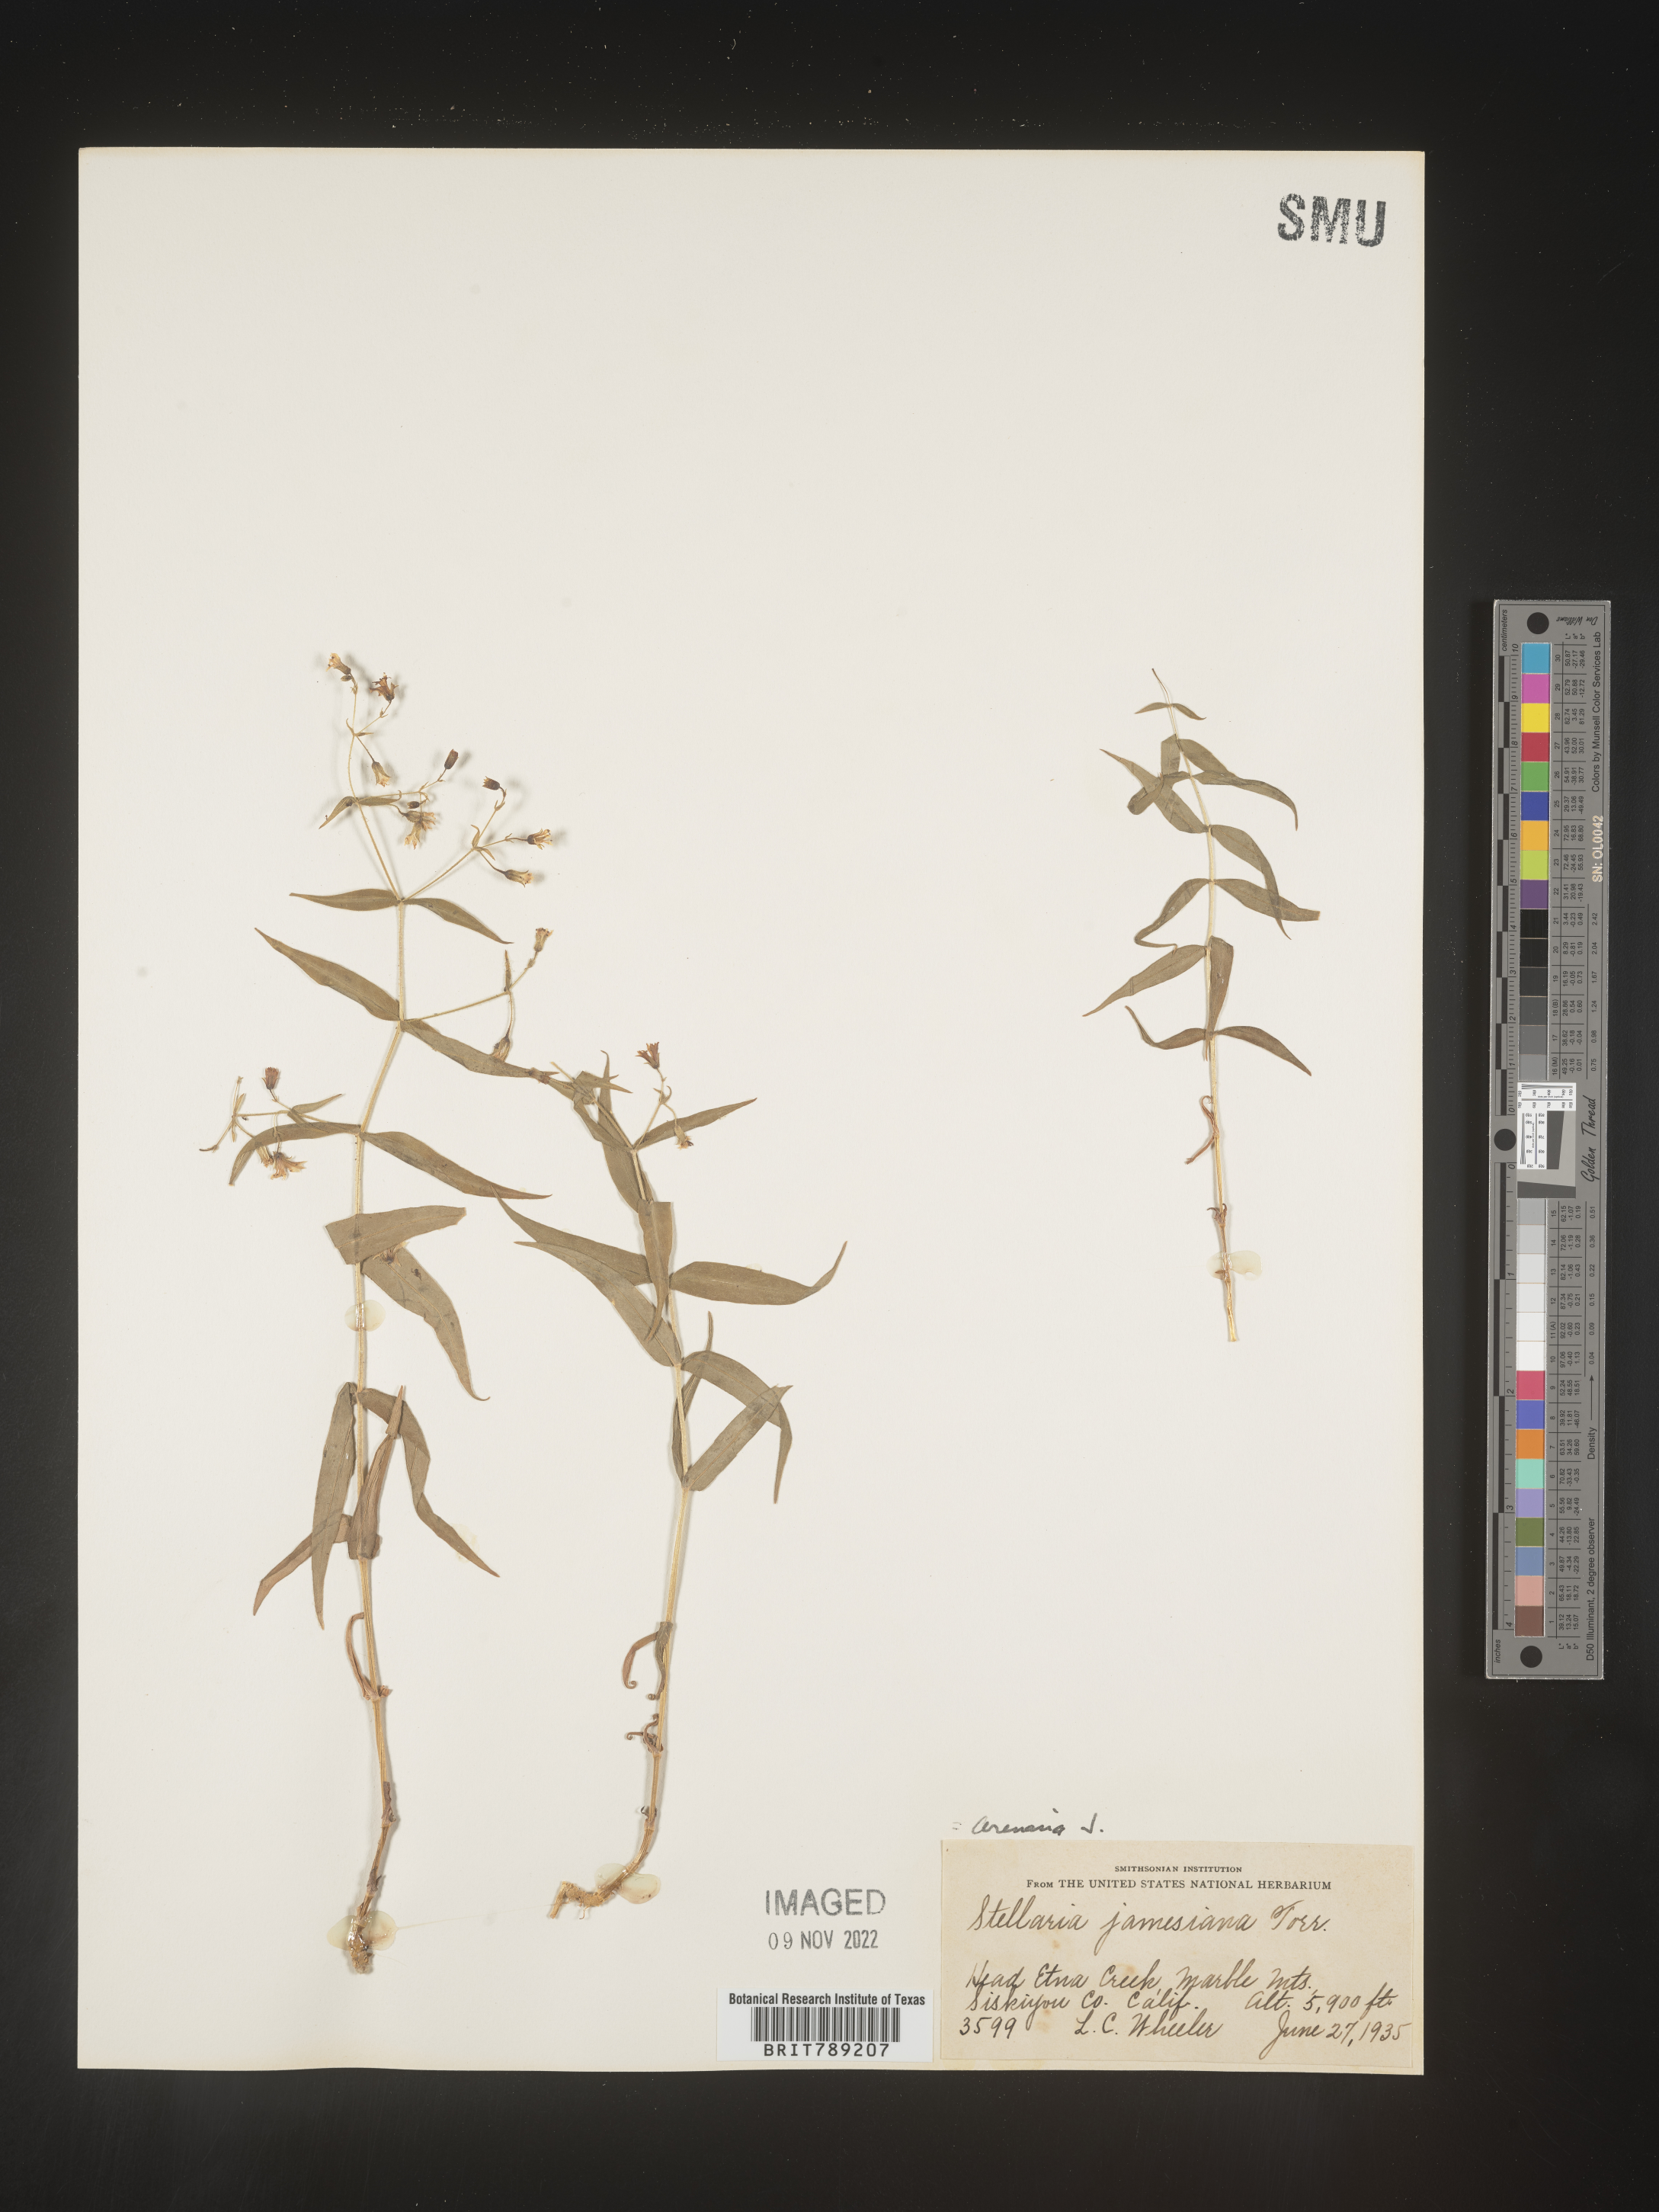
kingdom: Plantae
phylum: Tracheophyta
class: Magnoliopsida
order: Caryophyllales
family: Caryophyllaceae
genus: Arenaria
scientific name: Arenaria
